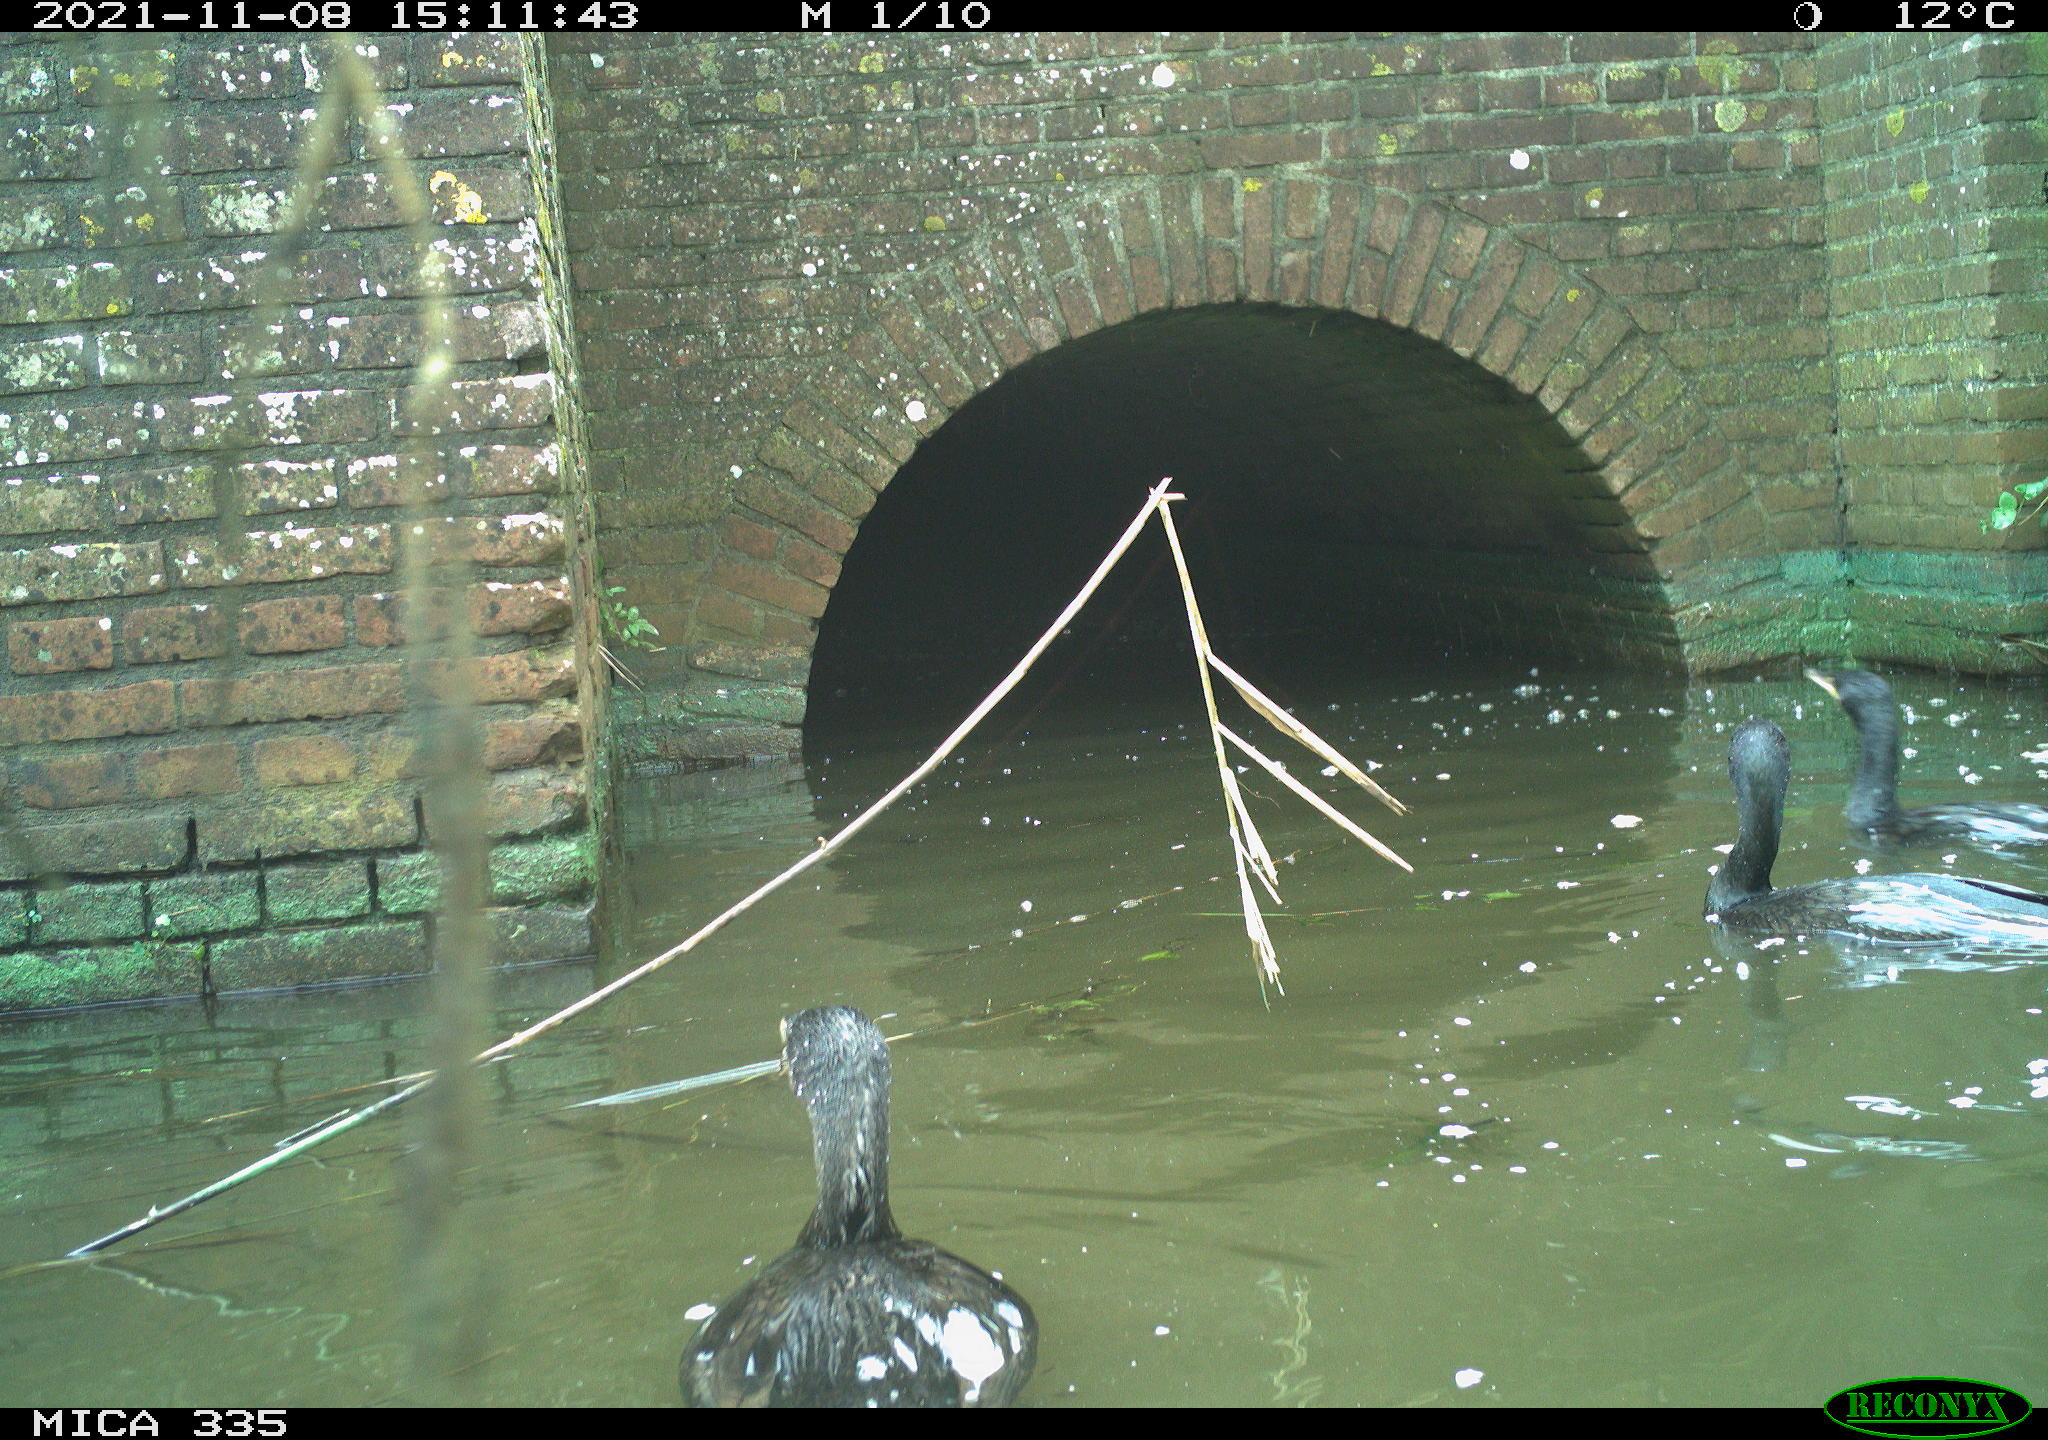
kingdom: Animalia
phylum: Chordata
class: Aves
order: Suliformes
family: Phalacrocoracidae
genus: Phalacrocorax
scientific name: Phalacrocorax carbo
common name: Great cormorant
